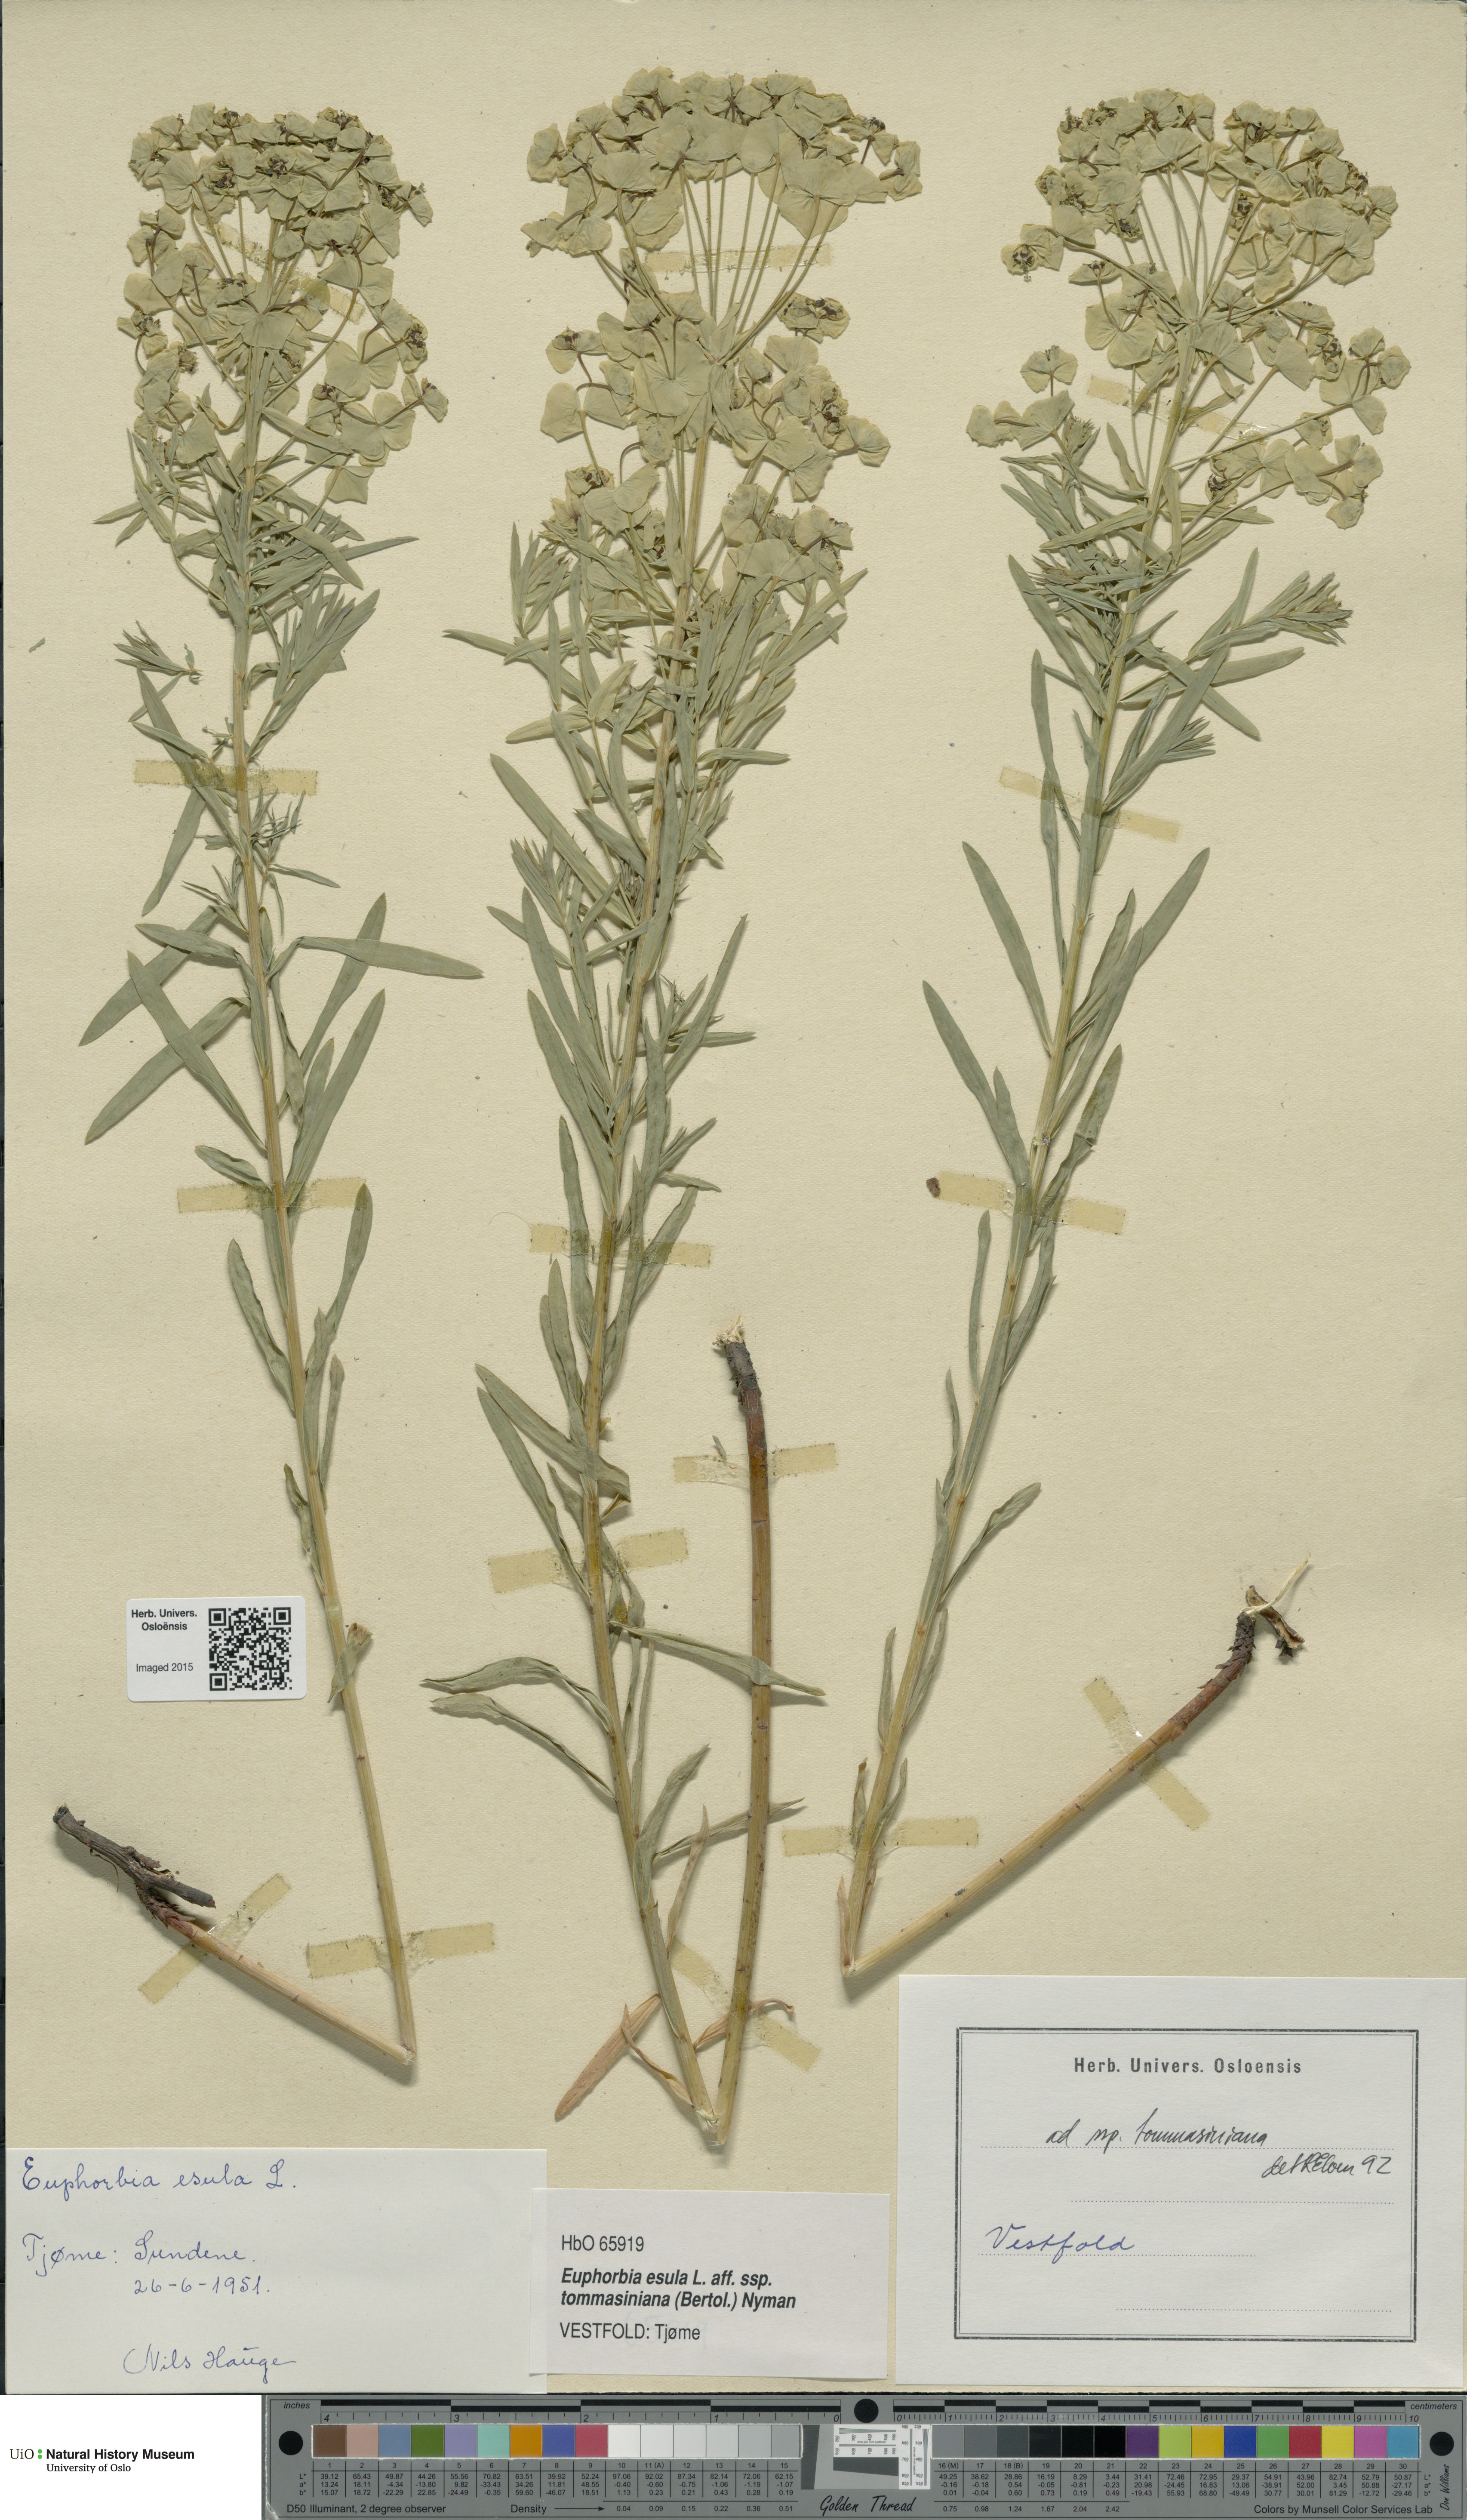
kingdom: Plantae
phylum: Tracheophyta
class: Magnoliopsida
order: Malpighiales
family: Euphorbiaceae
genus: Euphorbia
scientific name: Euphorbia tommasiniana
